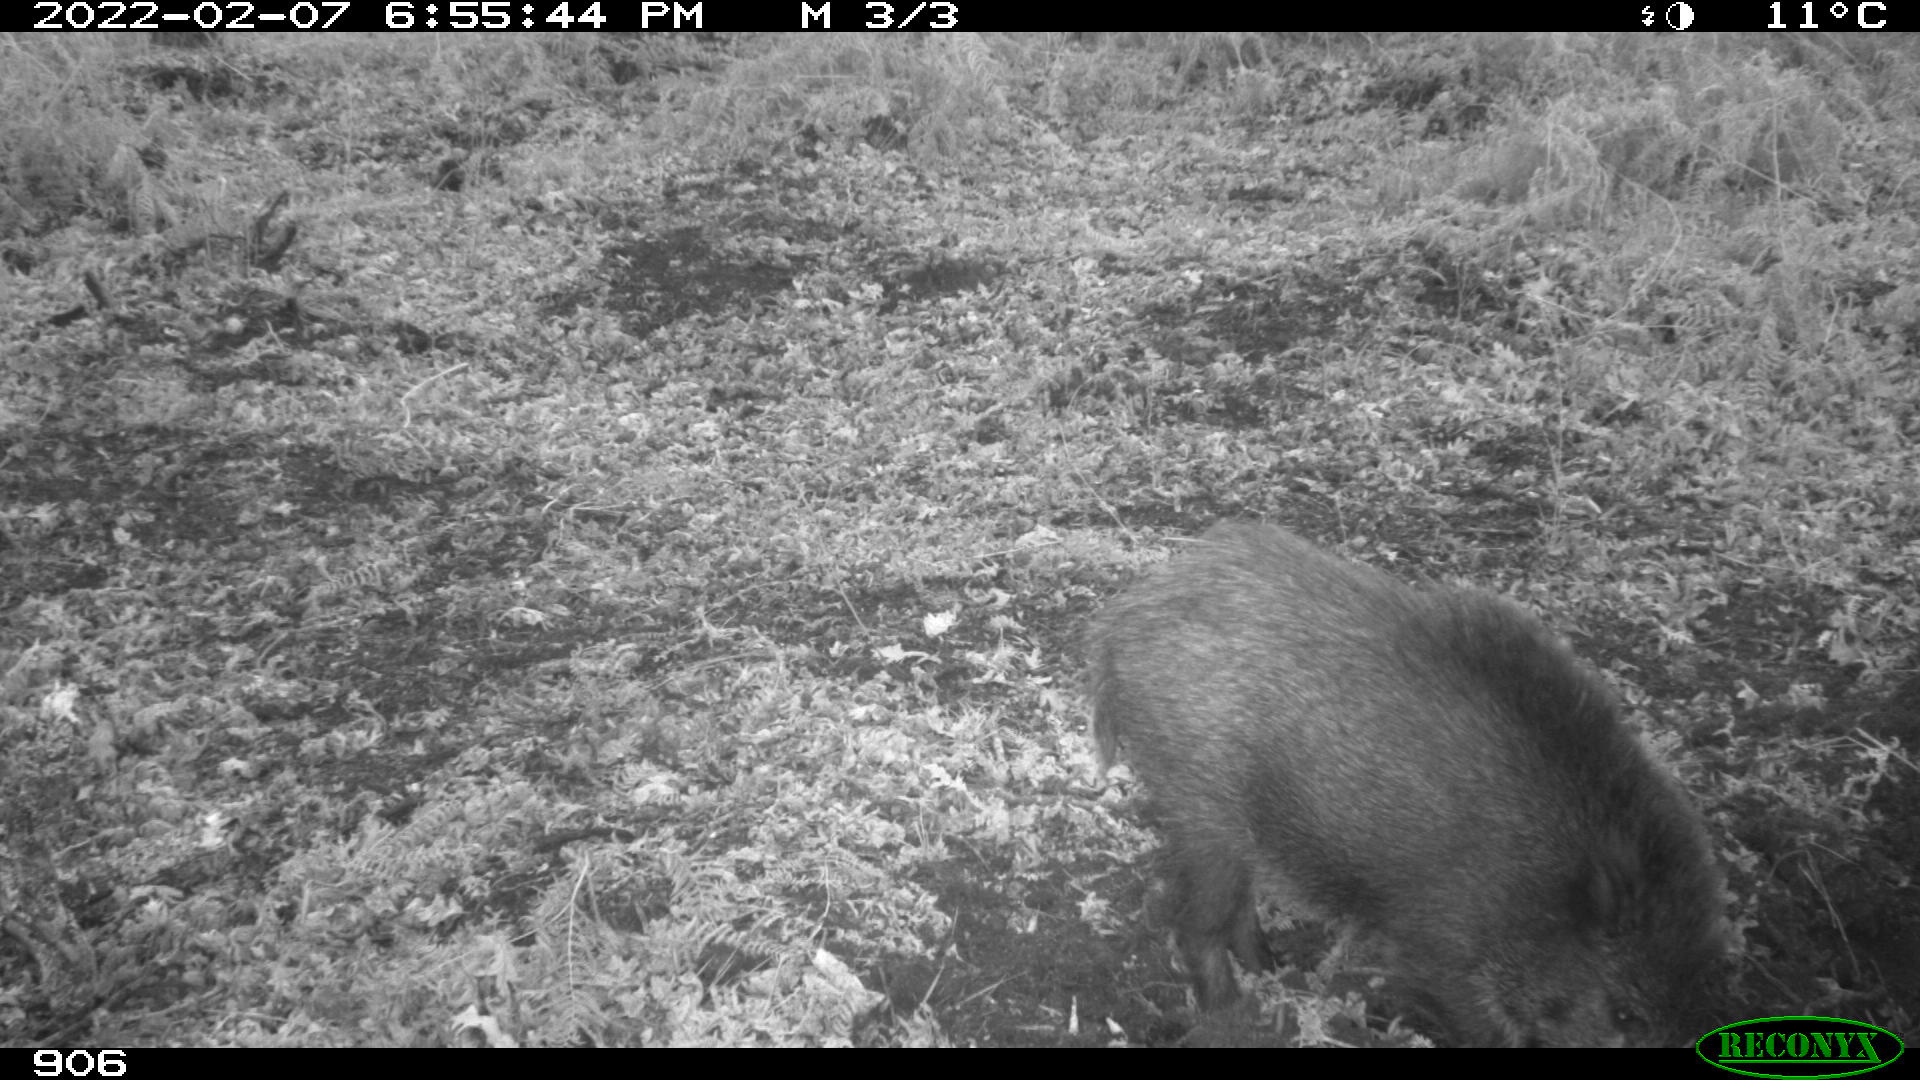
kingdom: Animalia
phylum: Chordata
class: Mammalia
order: Artiodactyla
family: Suidae
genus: Sus
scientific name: Sus scrofa
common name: Wild boar
